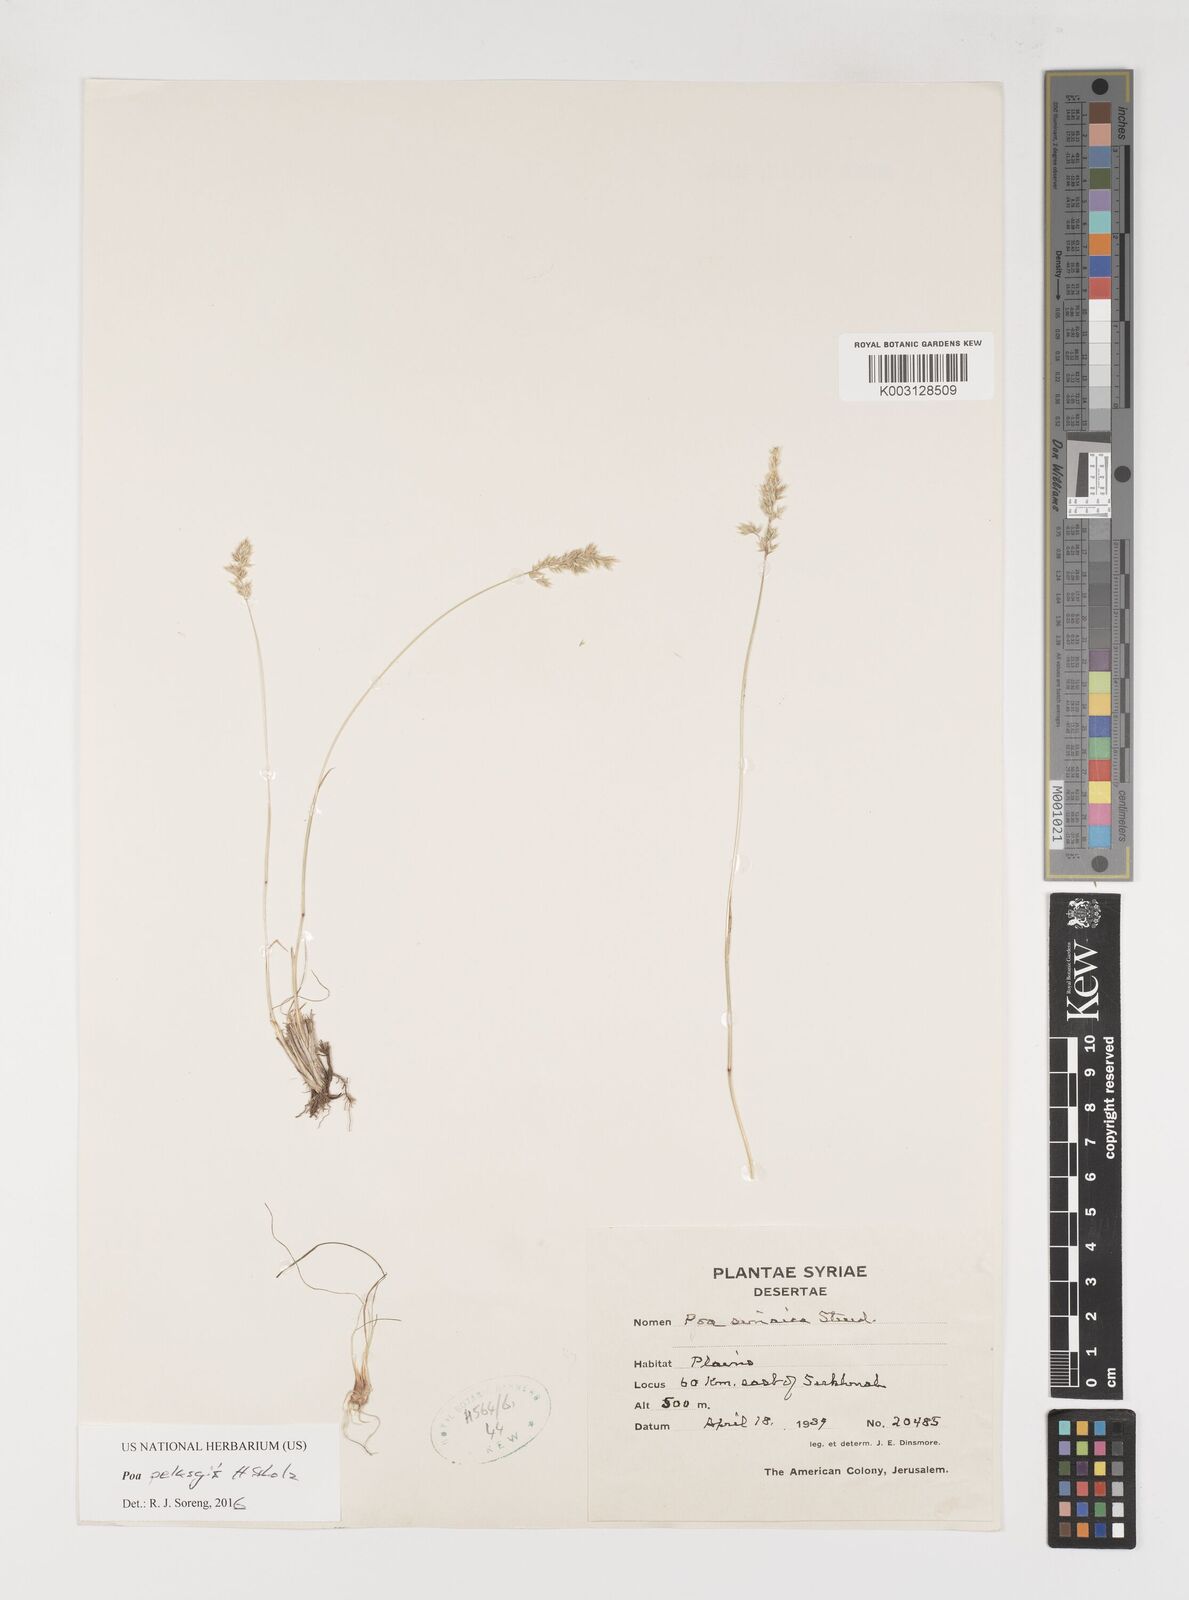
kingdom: Plantae
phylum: Tracheophyta
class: Liliopsida
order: Poales
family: Poaceae
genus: Poa
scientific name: Poa sinaica
